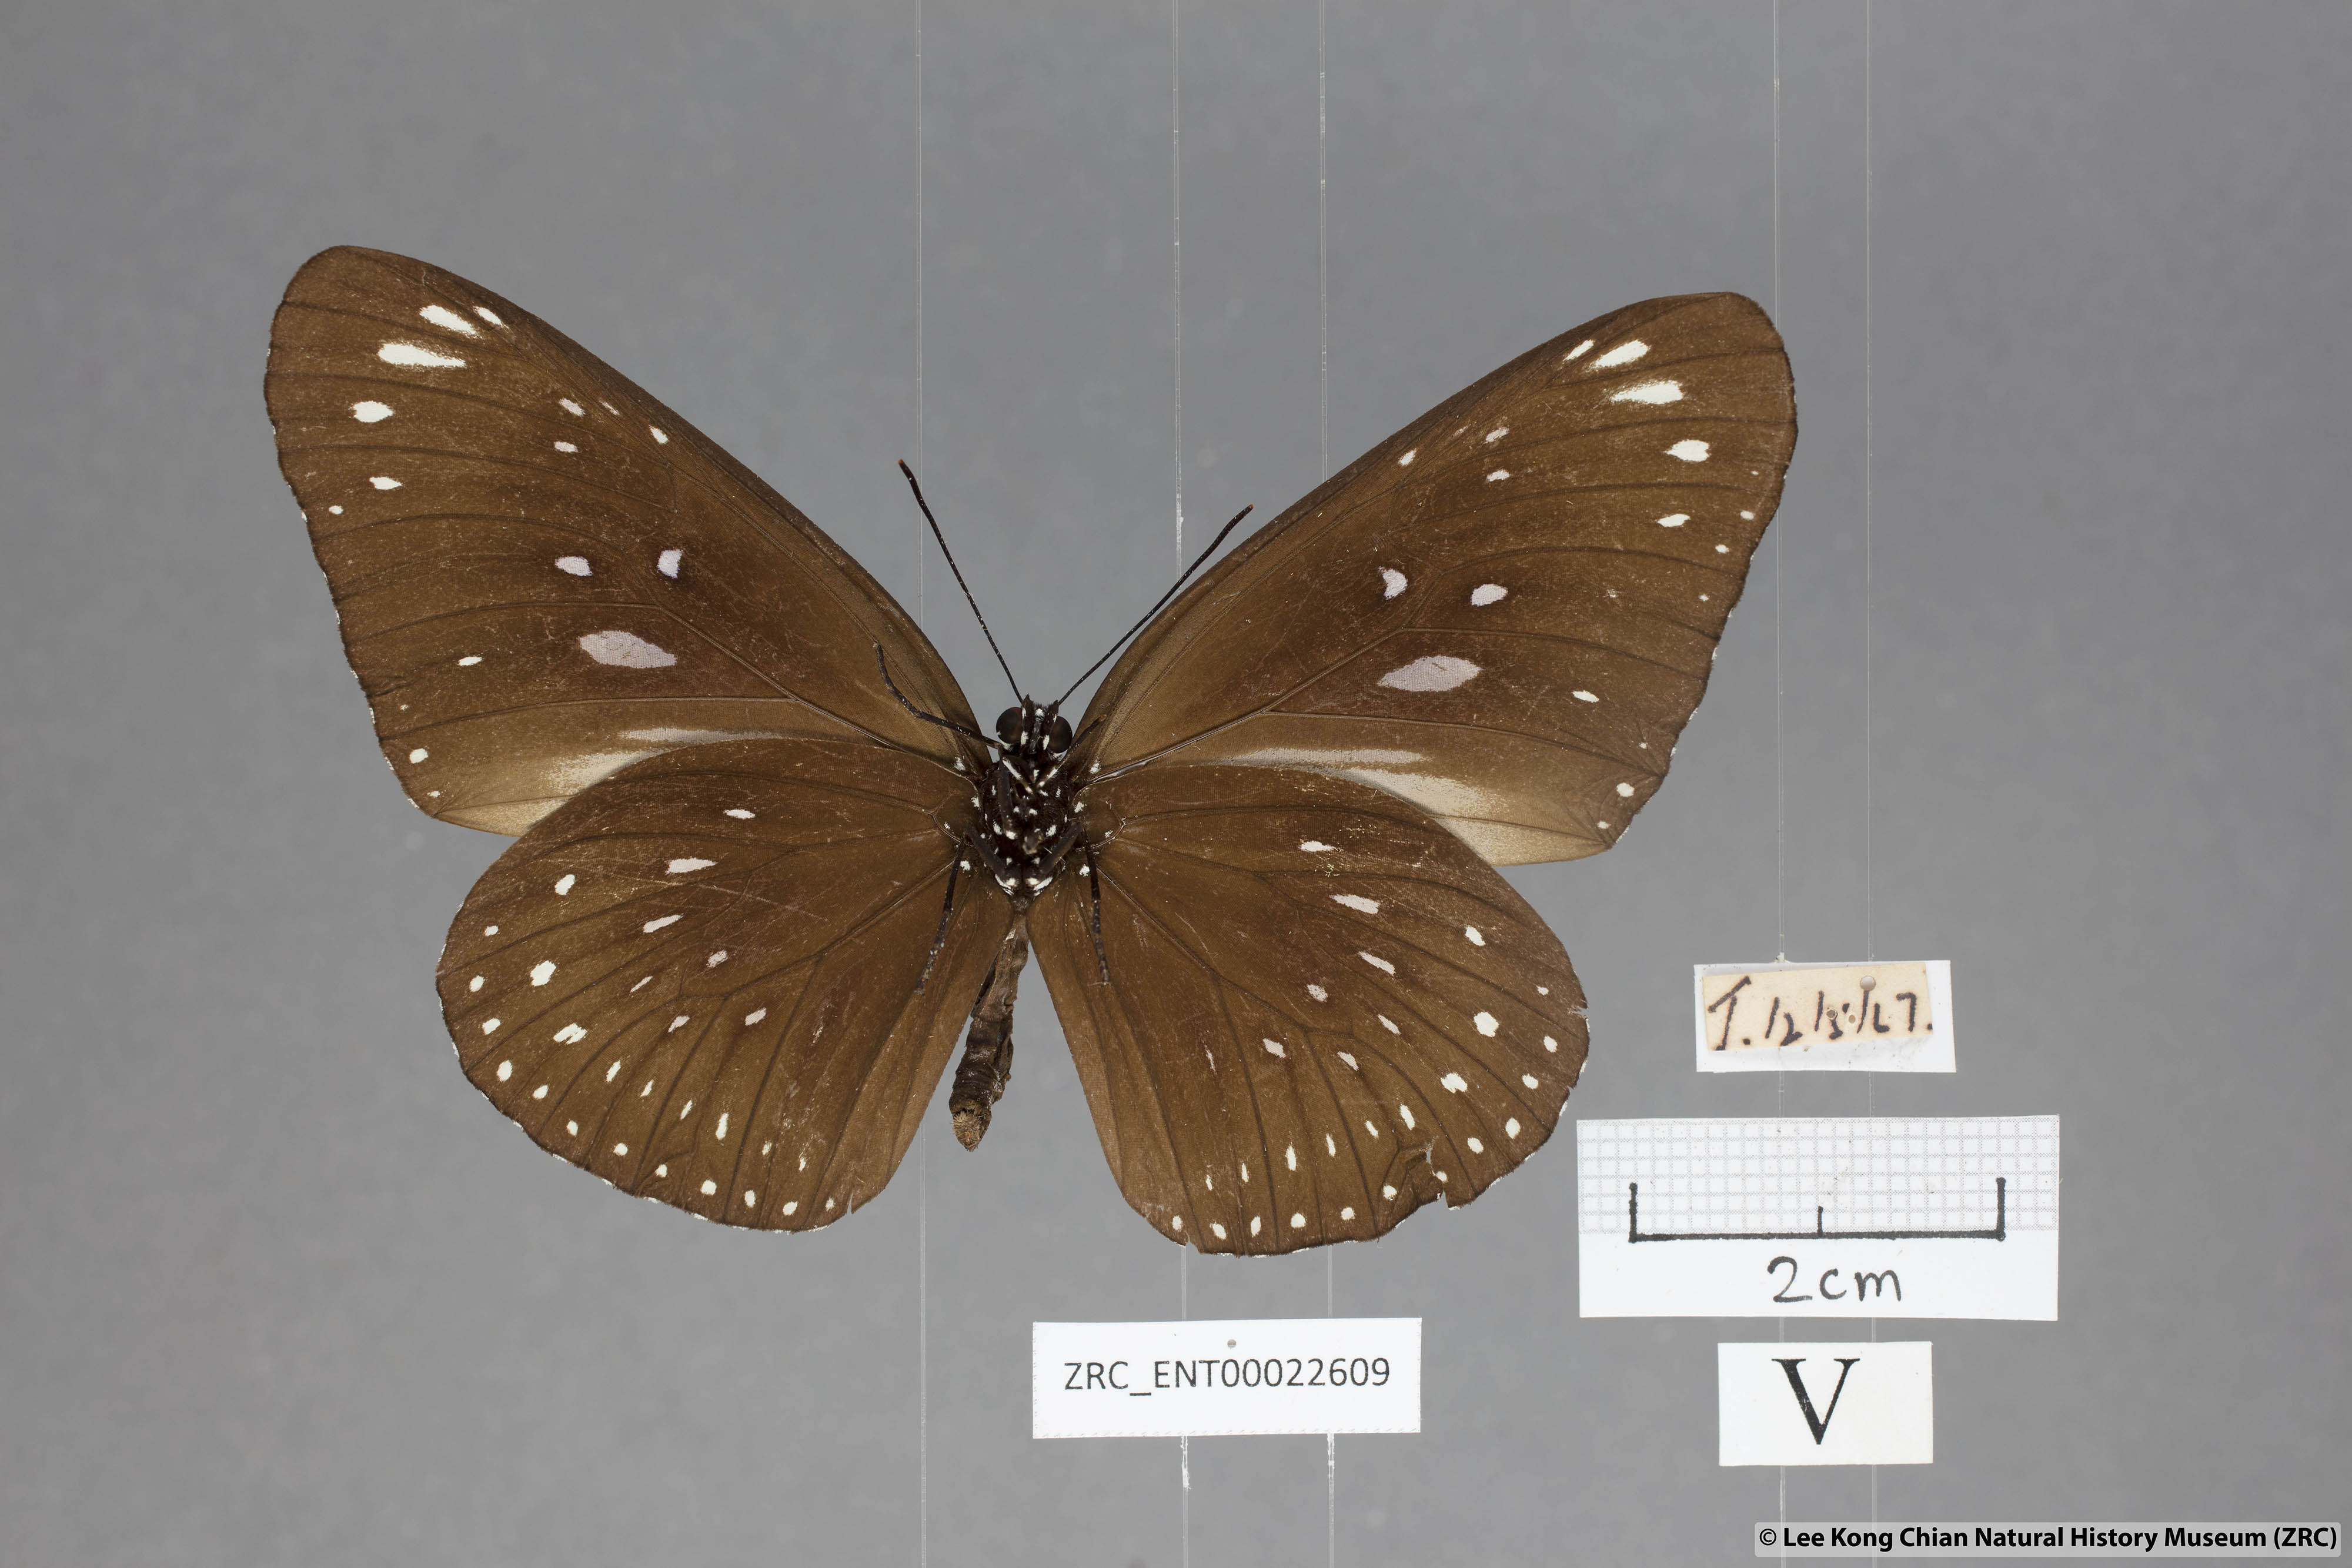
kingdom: Animalia
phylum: Arthropoda
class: Insecta
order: Lepidoptera
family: Nymphalidae
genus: Euploea
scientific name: Euploea modesta
